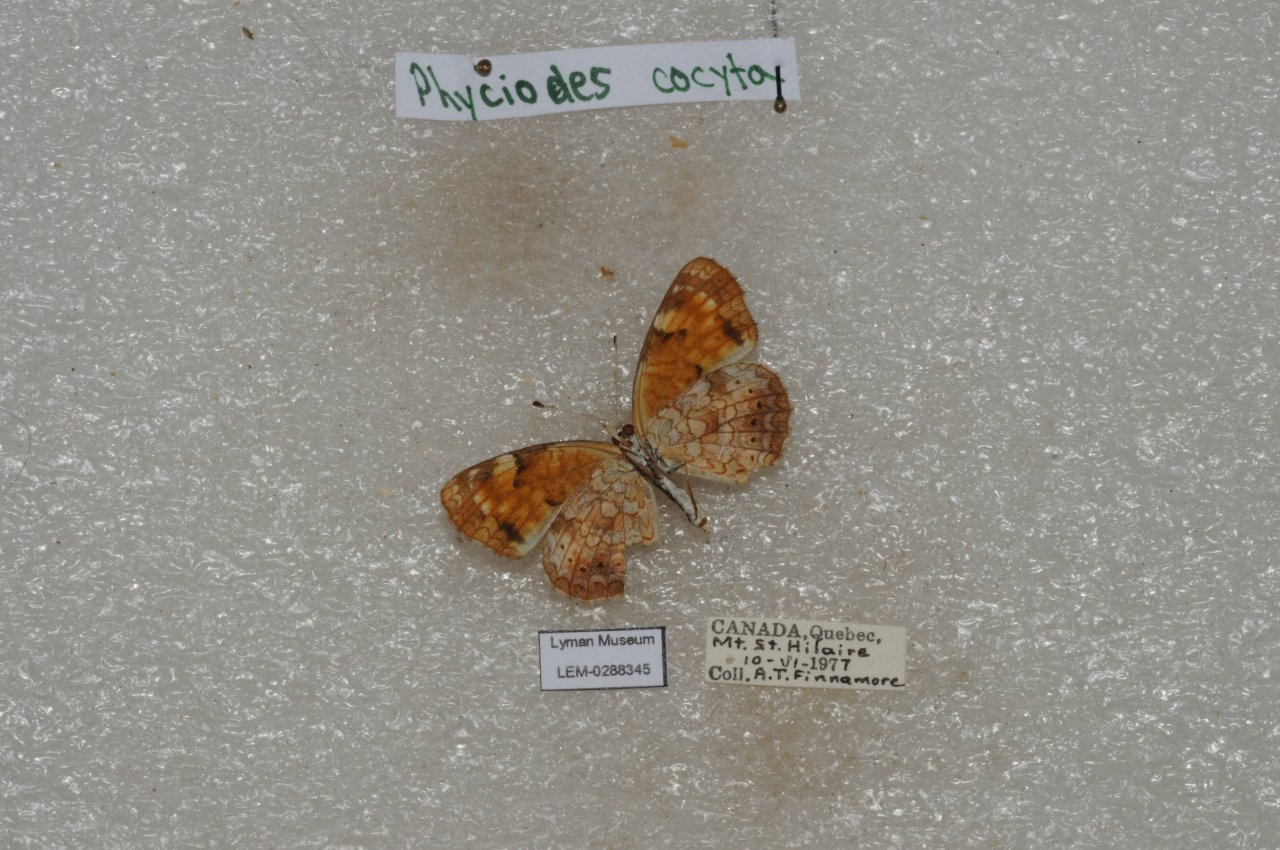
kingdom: Animalia
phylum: Arthropoda
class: Insecta
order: Lepidoptera
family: Nymphalidae
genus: Phyciodes
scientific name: Phyciodes tharos
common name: Northern Crescent
